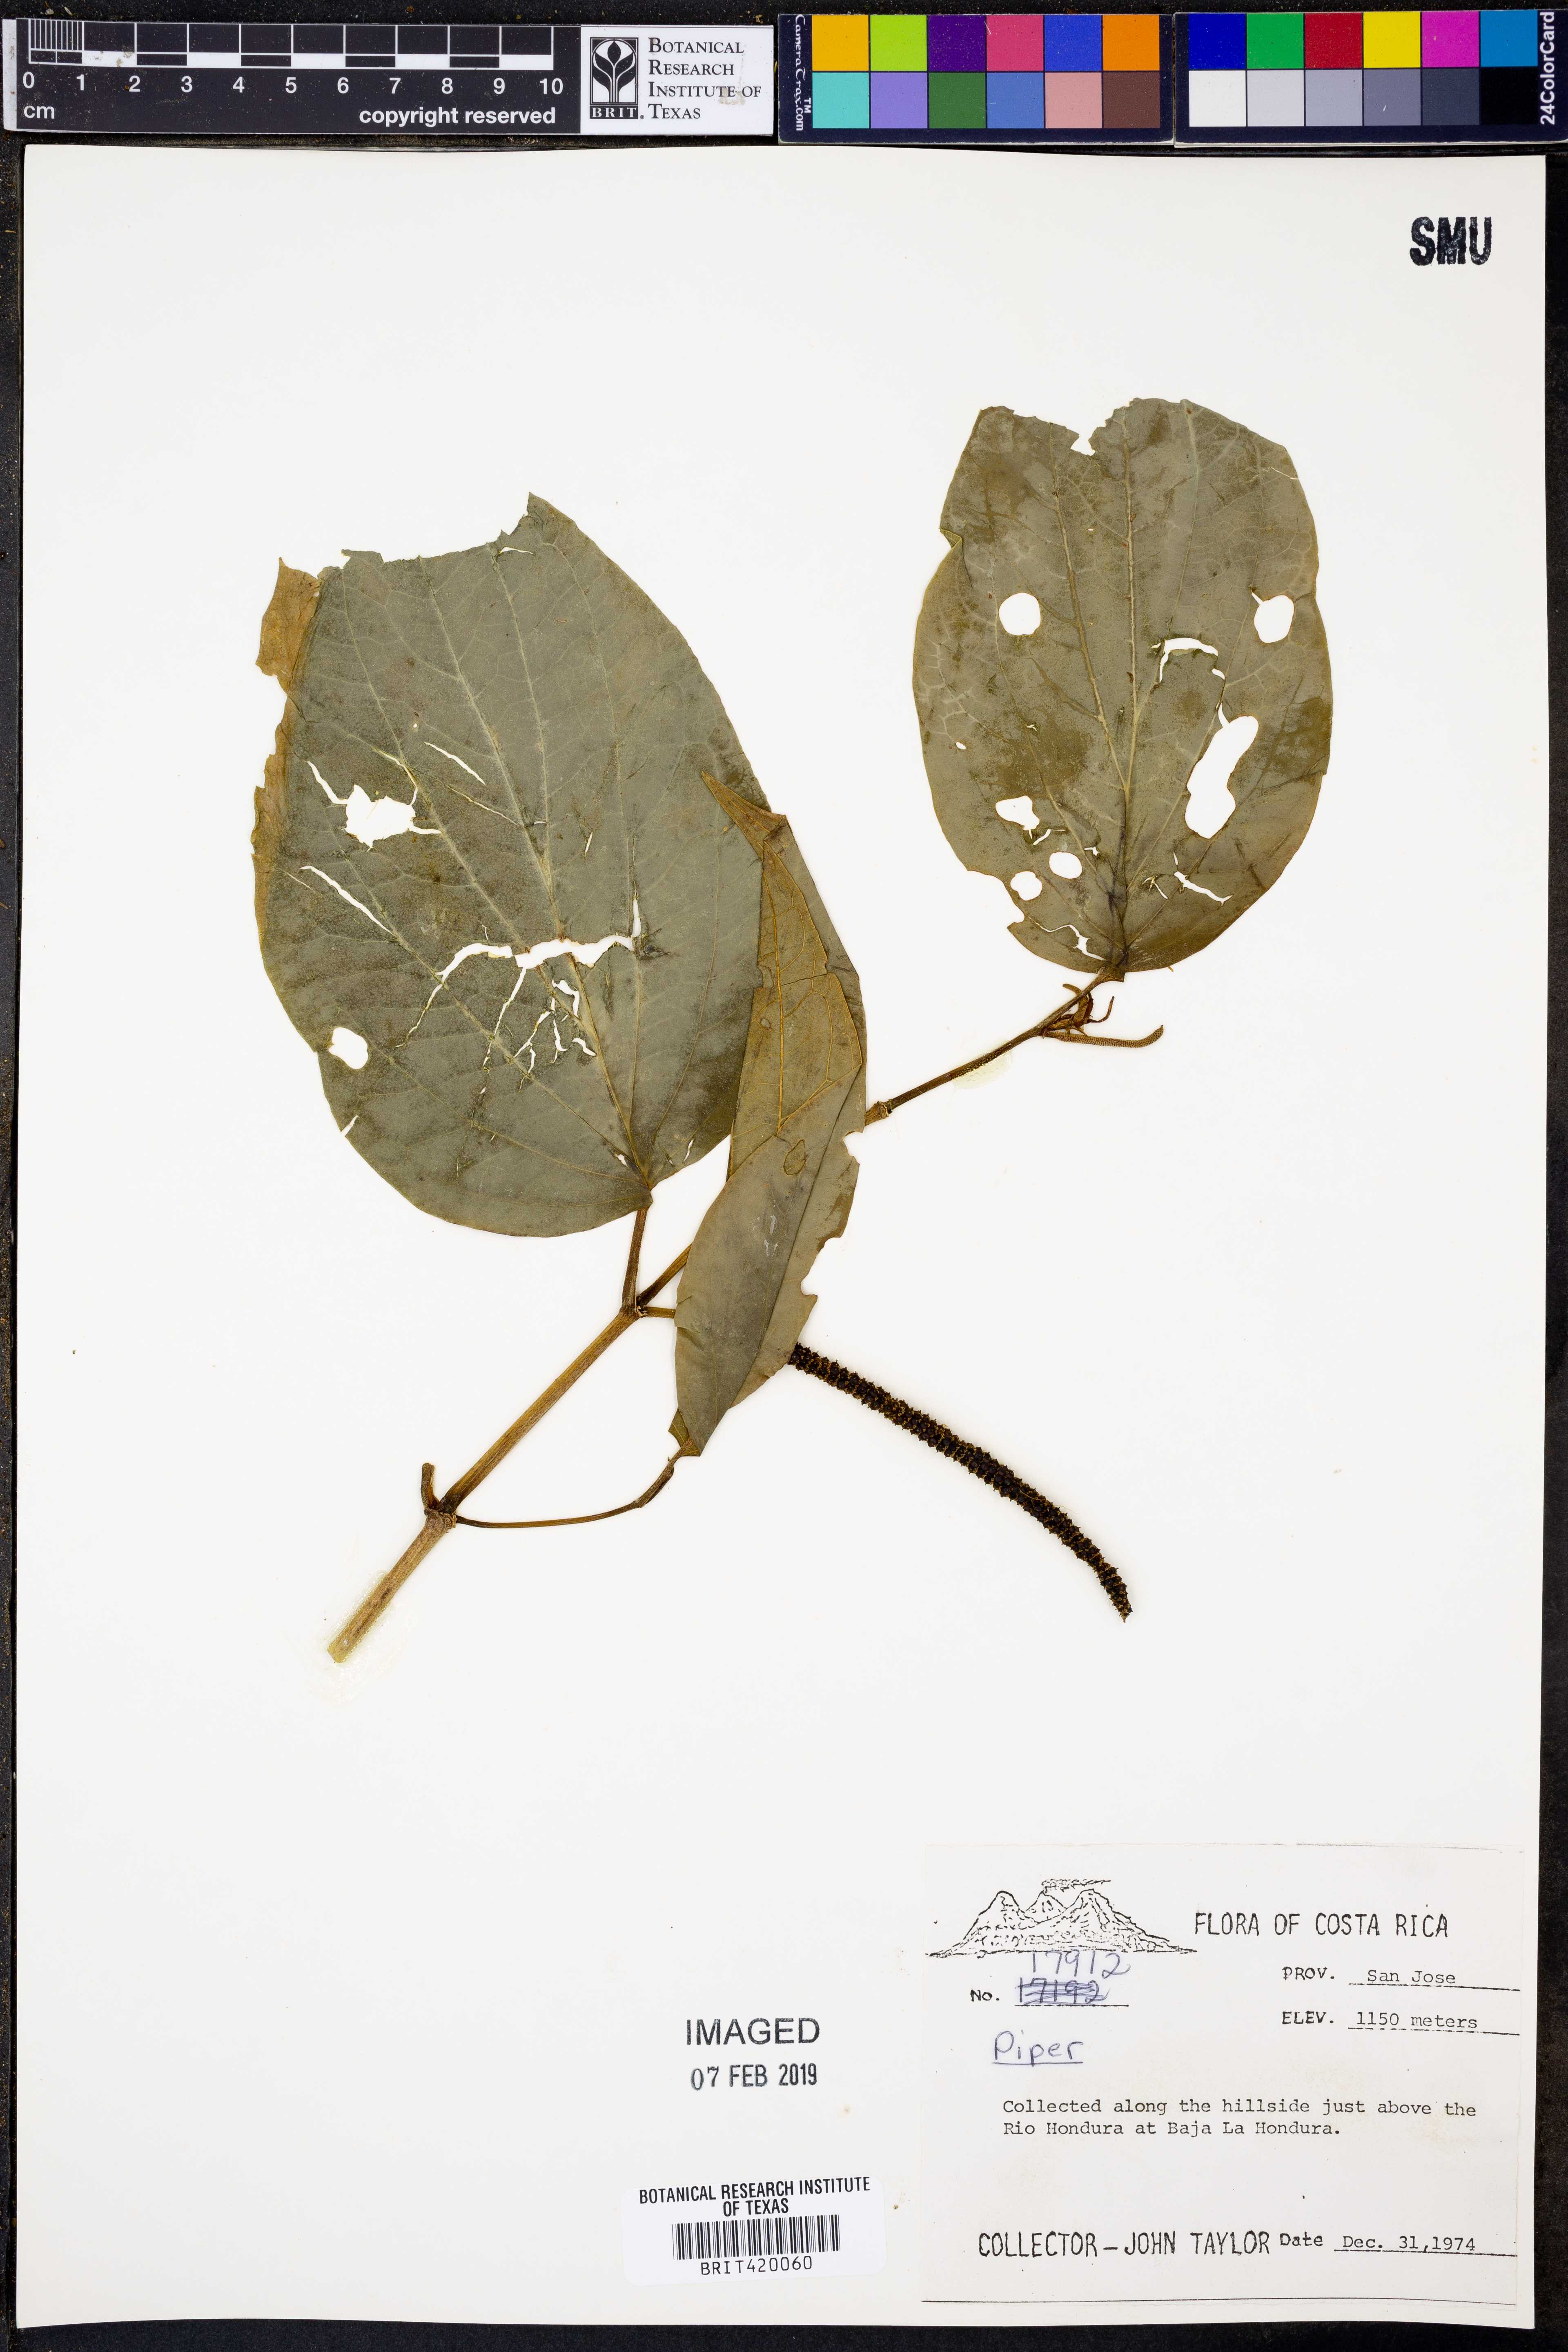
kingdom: Plantae
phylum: Tracheophyta
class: Magnoliopsida
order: Piperales
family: Piperaceae
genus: Piper
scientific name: Piper
